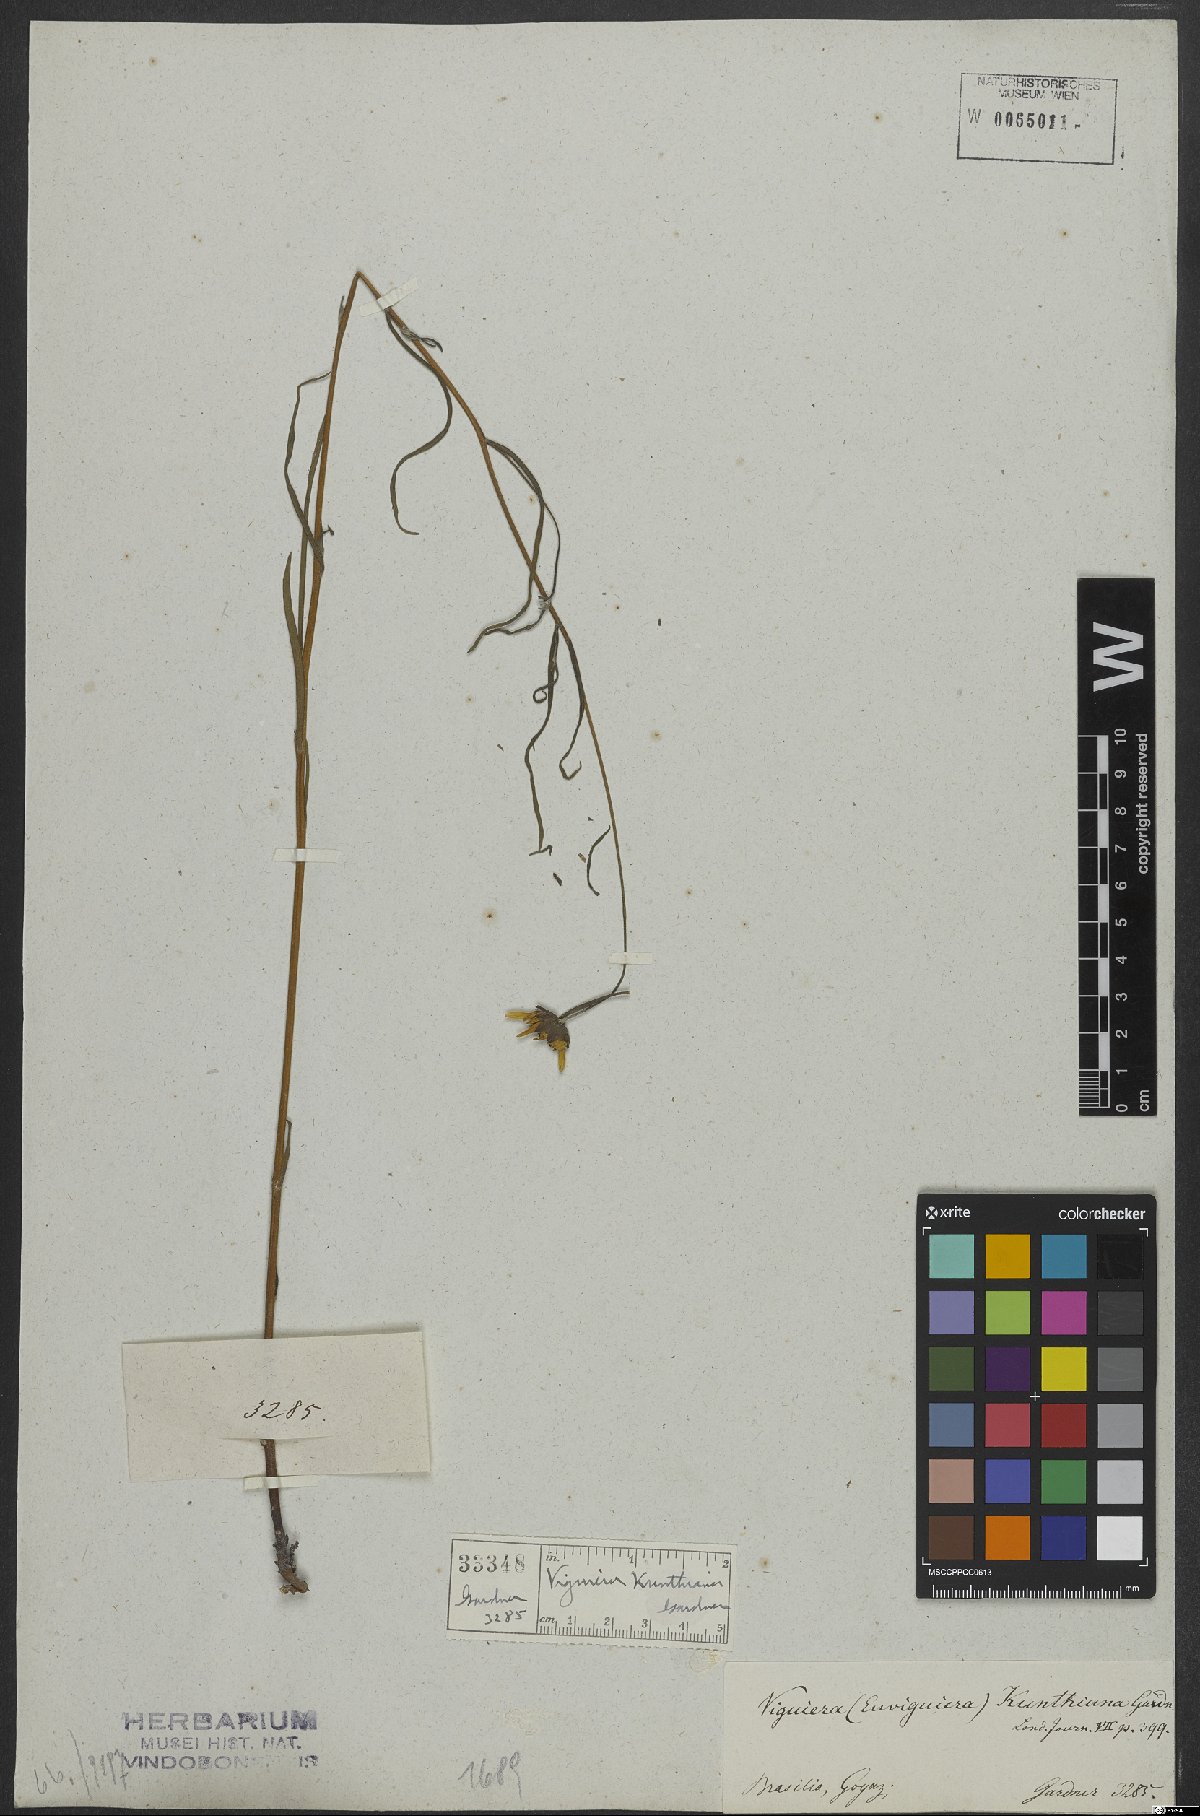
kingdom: Plantae
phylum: Tracheophyta
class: Magnoliopsida
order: Asterales
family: Asteraceae
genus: Aldama
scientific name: Aldama kunthiana
